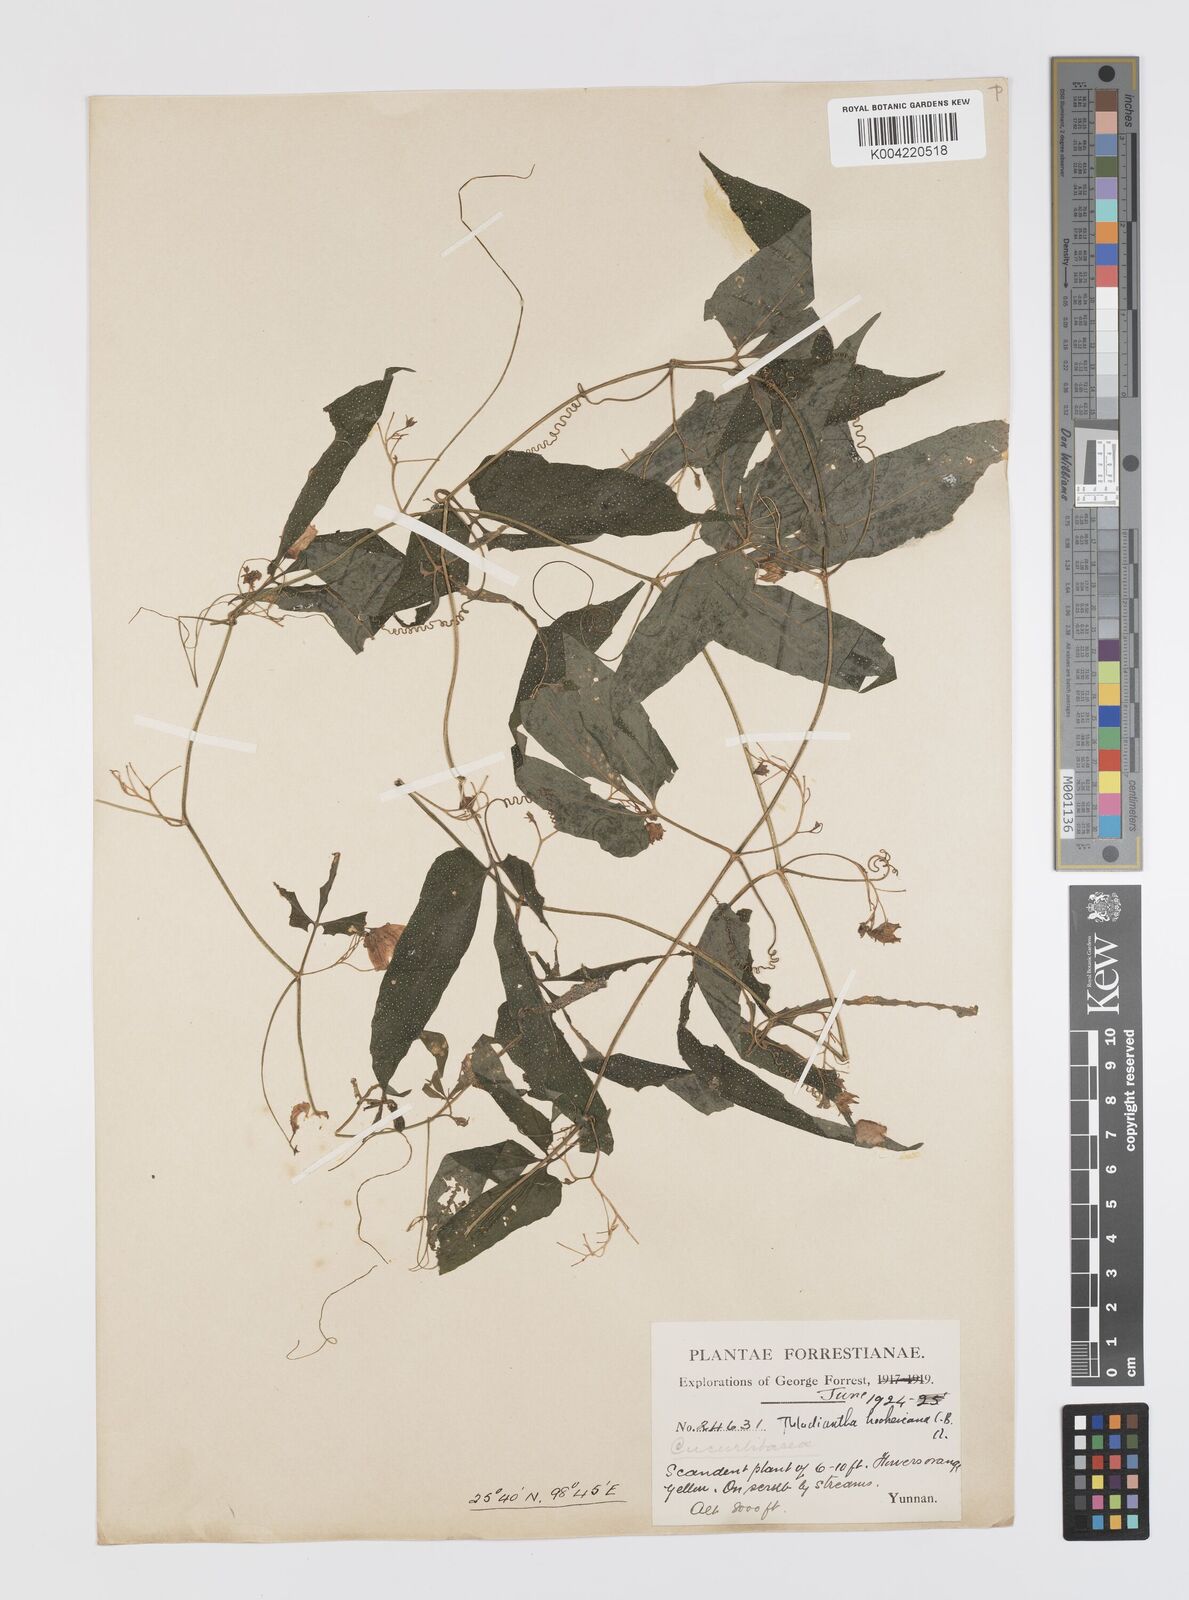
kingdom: Plantae
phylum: Tracheophyta
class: Magnoliopsida
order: Cucurbitales
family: Cucurbitaceae
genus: Thladiantha
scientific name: Thladiantha hookeri
